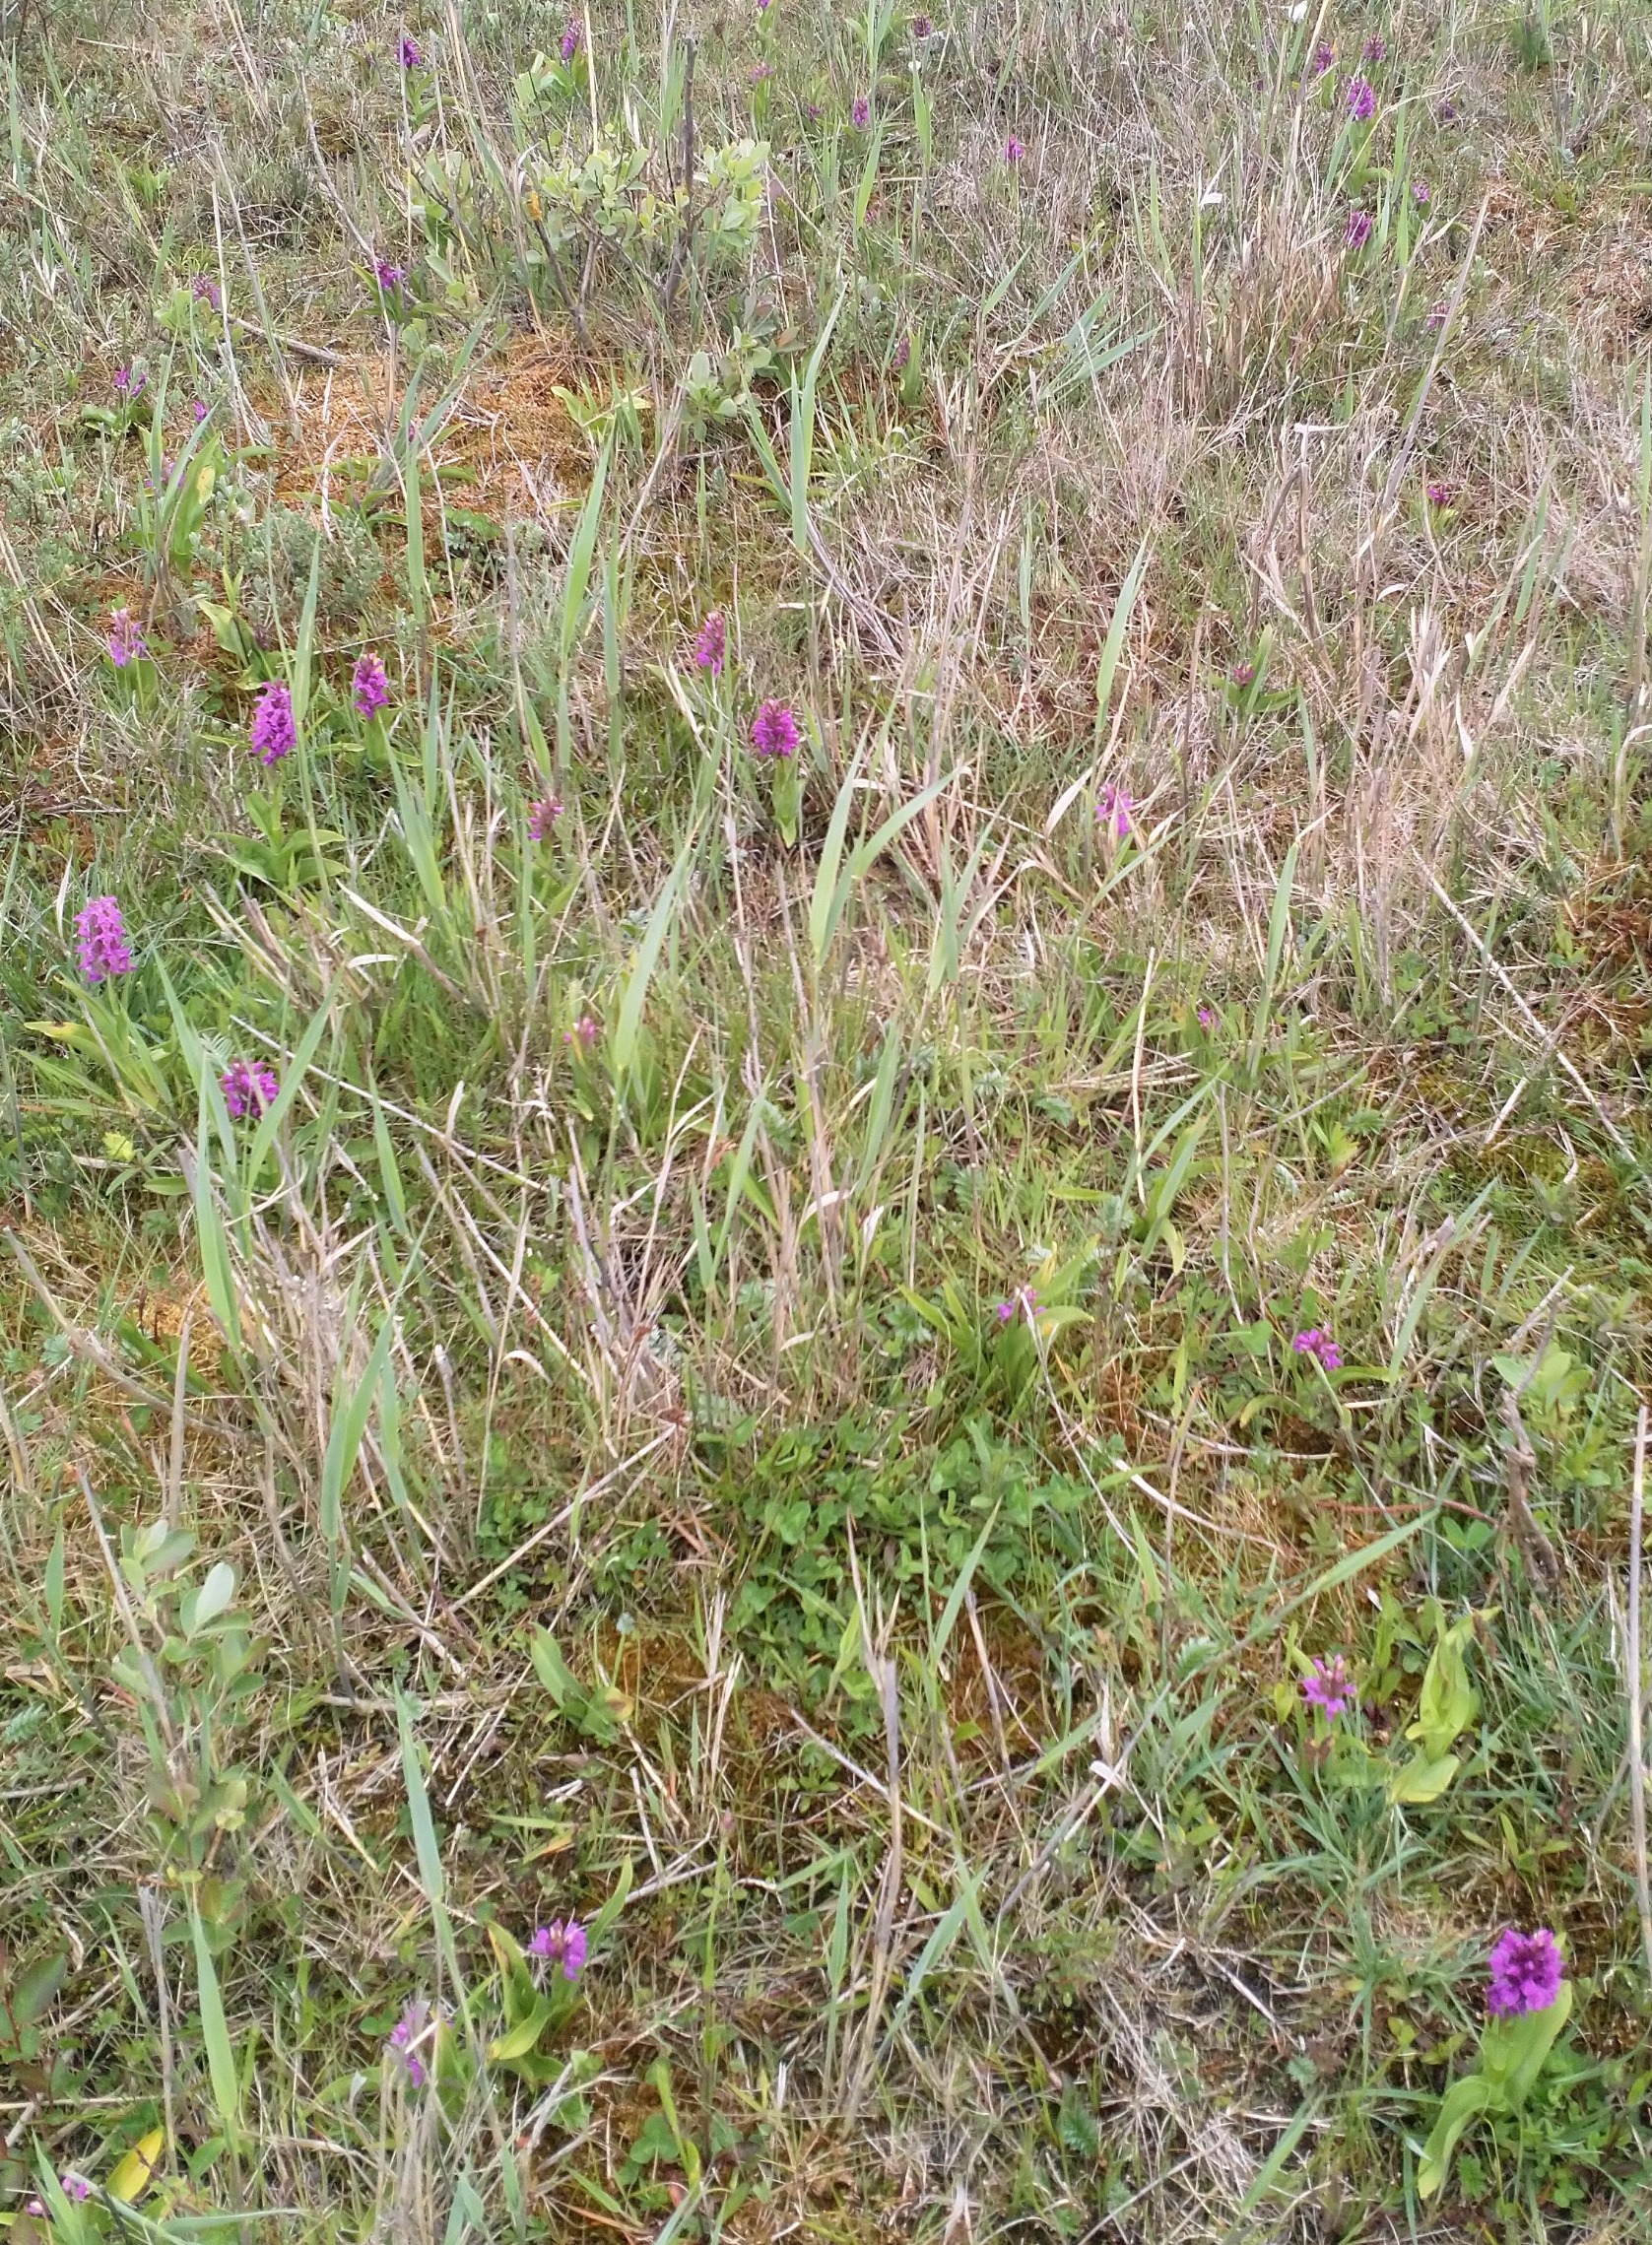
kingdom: Plantae
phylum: Tracheophyta
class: Liliopsida
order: Asparagales
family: Orchidaceae
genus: Dactylorhiza
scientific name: Dactylorhiza majalis
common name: Maj-gøgeurt
